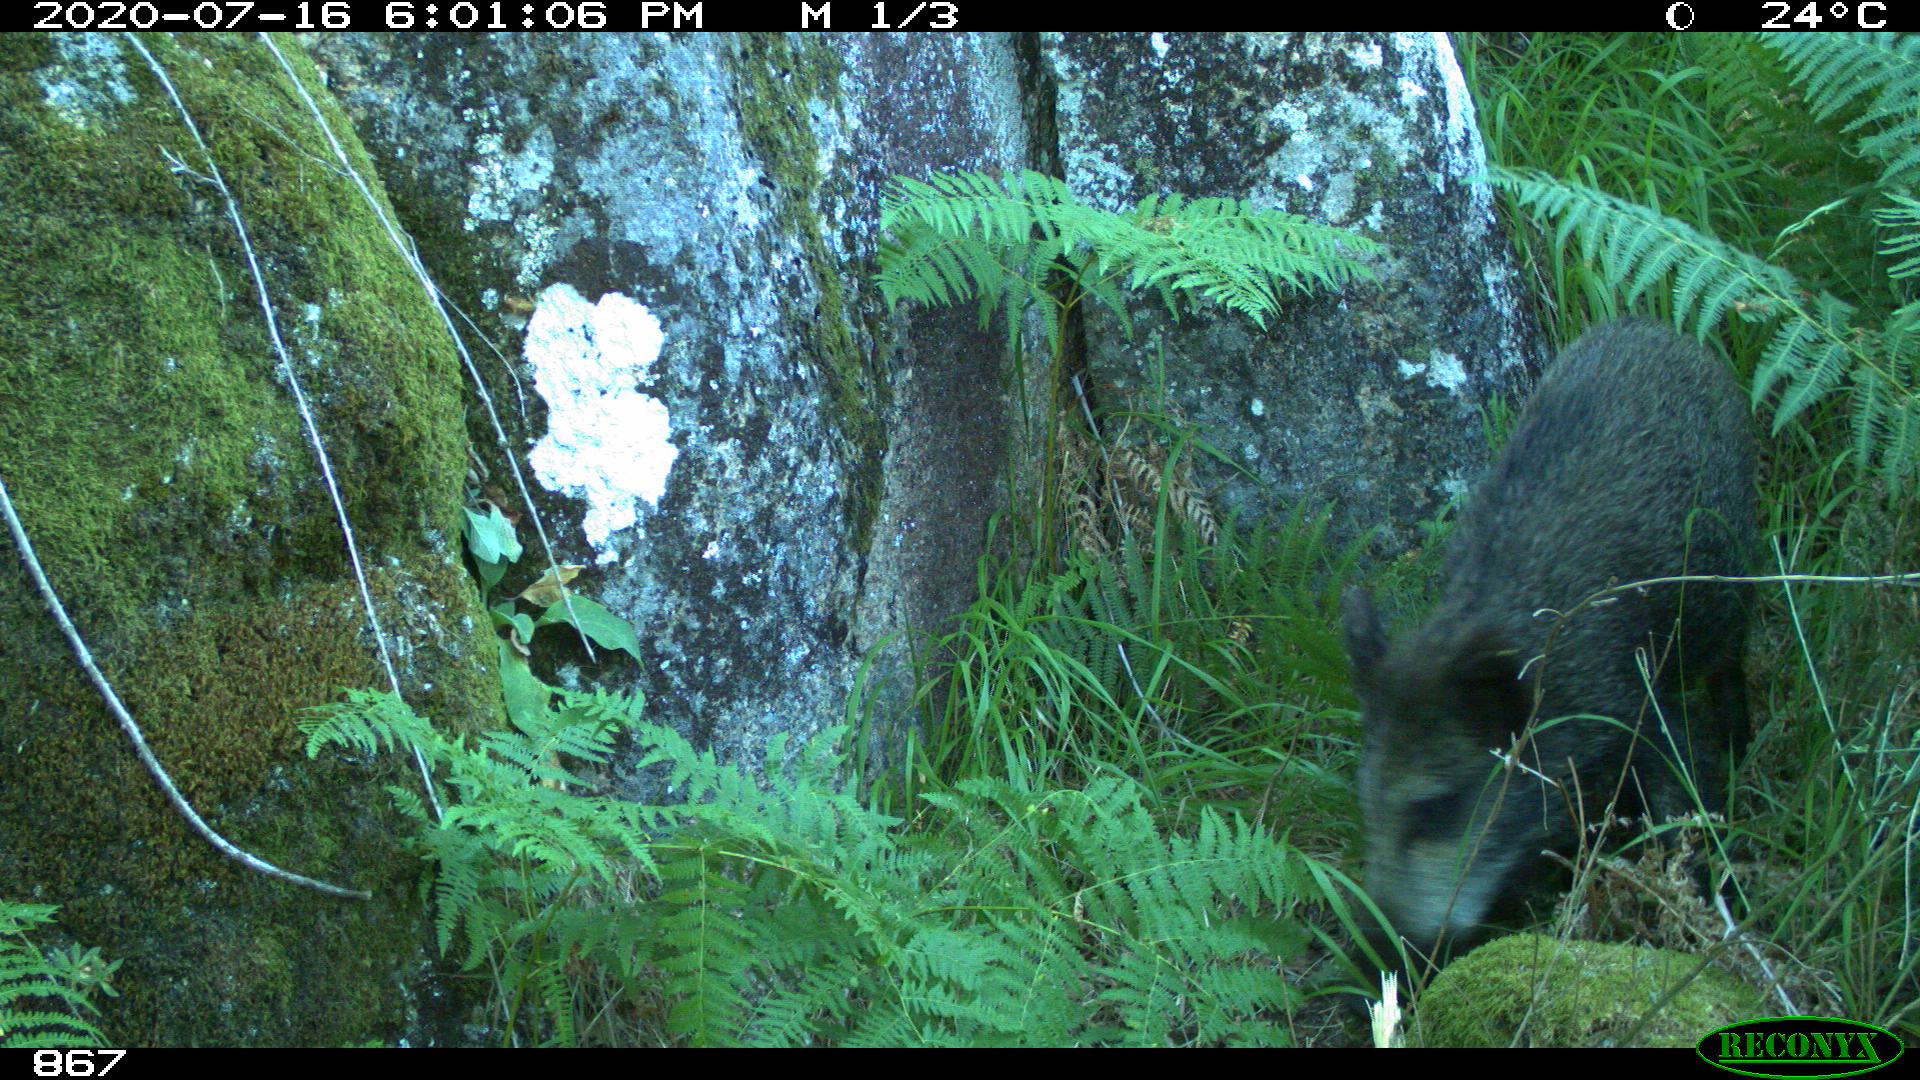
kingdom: Animalia
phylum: Chordata
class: Mammalia
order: Artiodactyla
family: Suidae
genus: Sus
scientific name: Sus scrofa
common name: Wild boar
